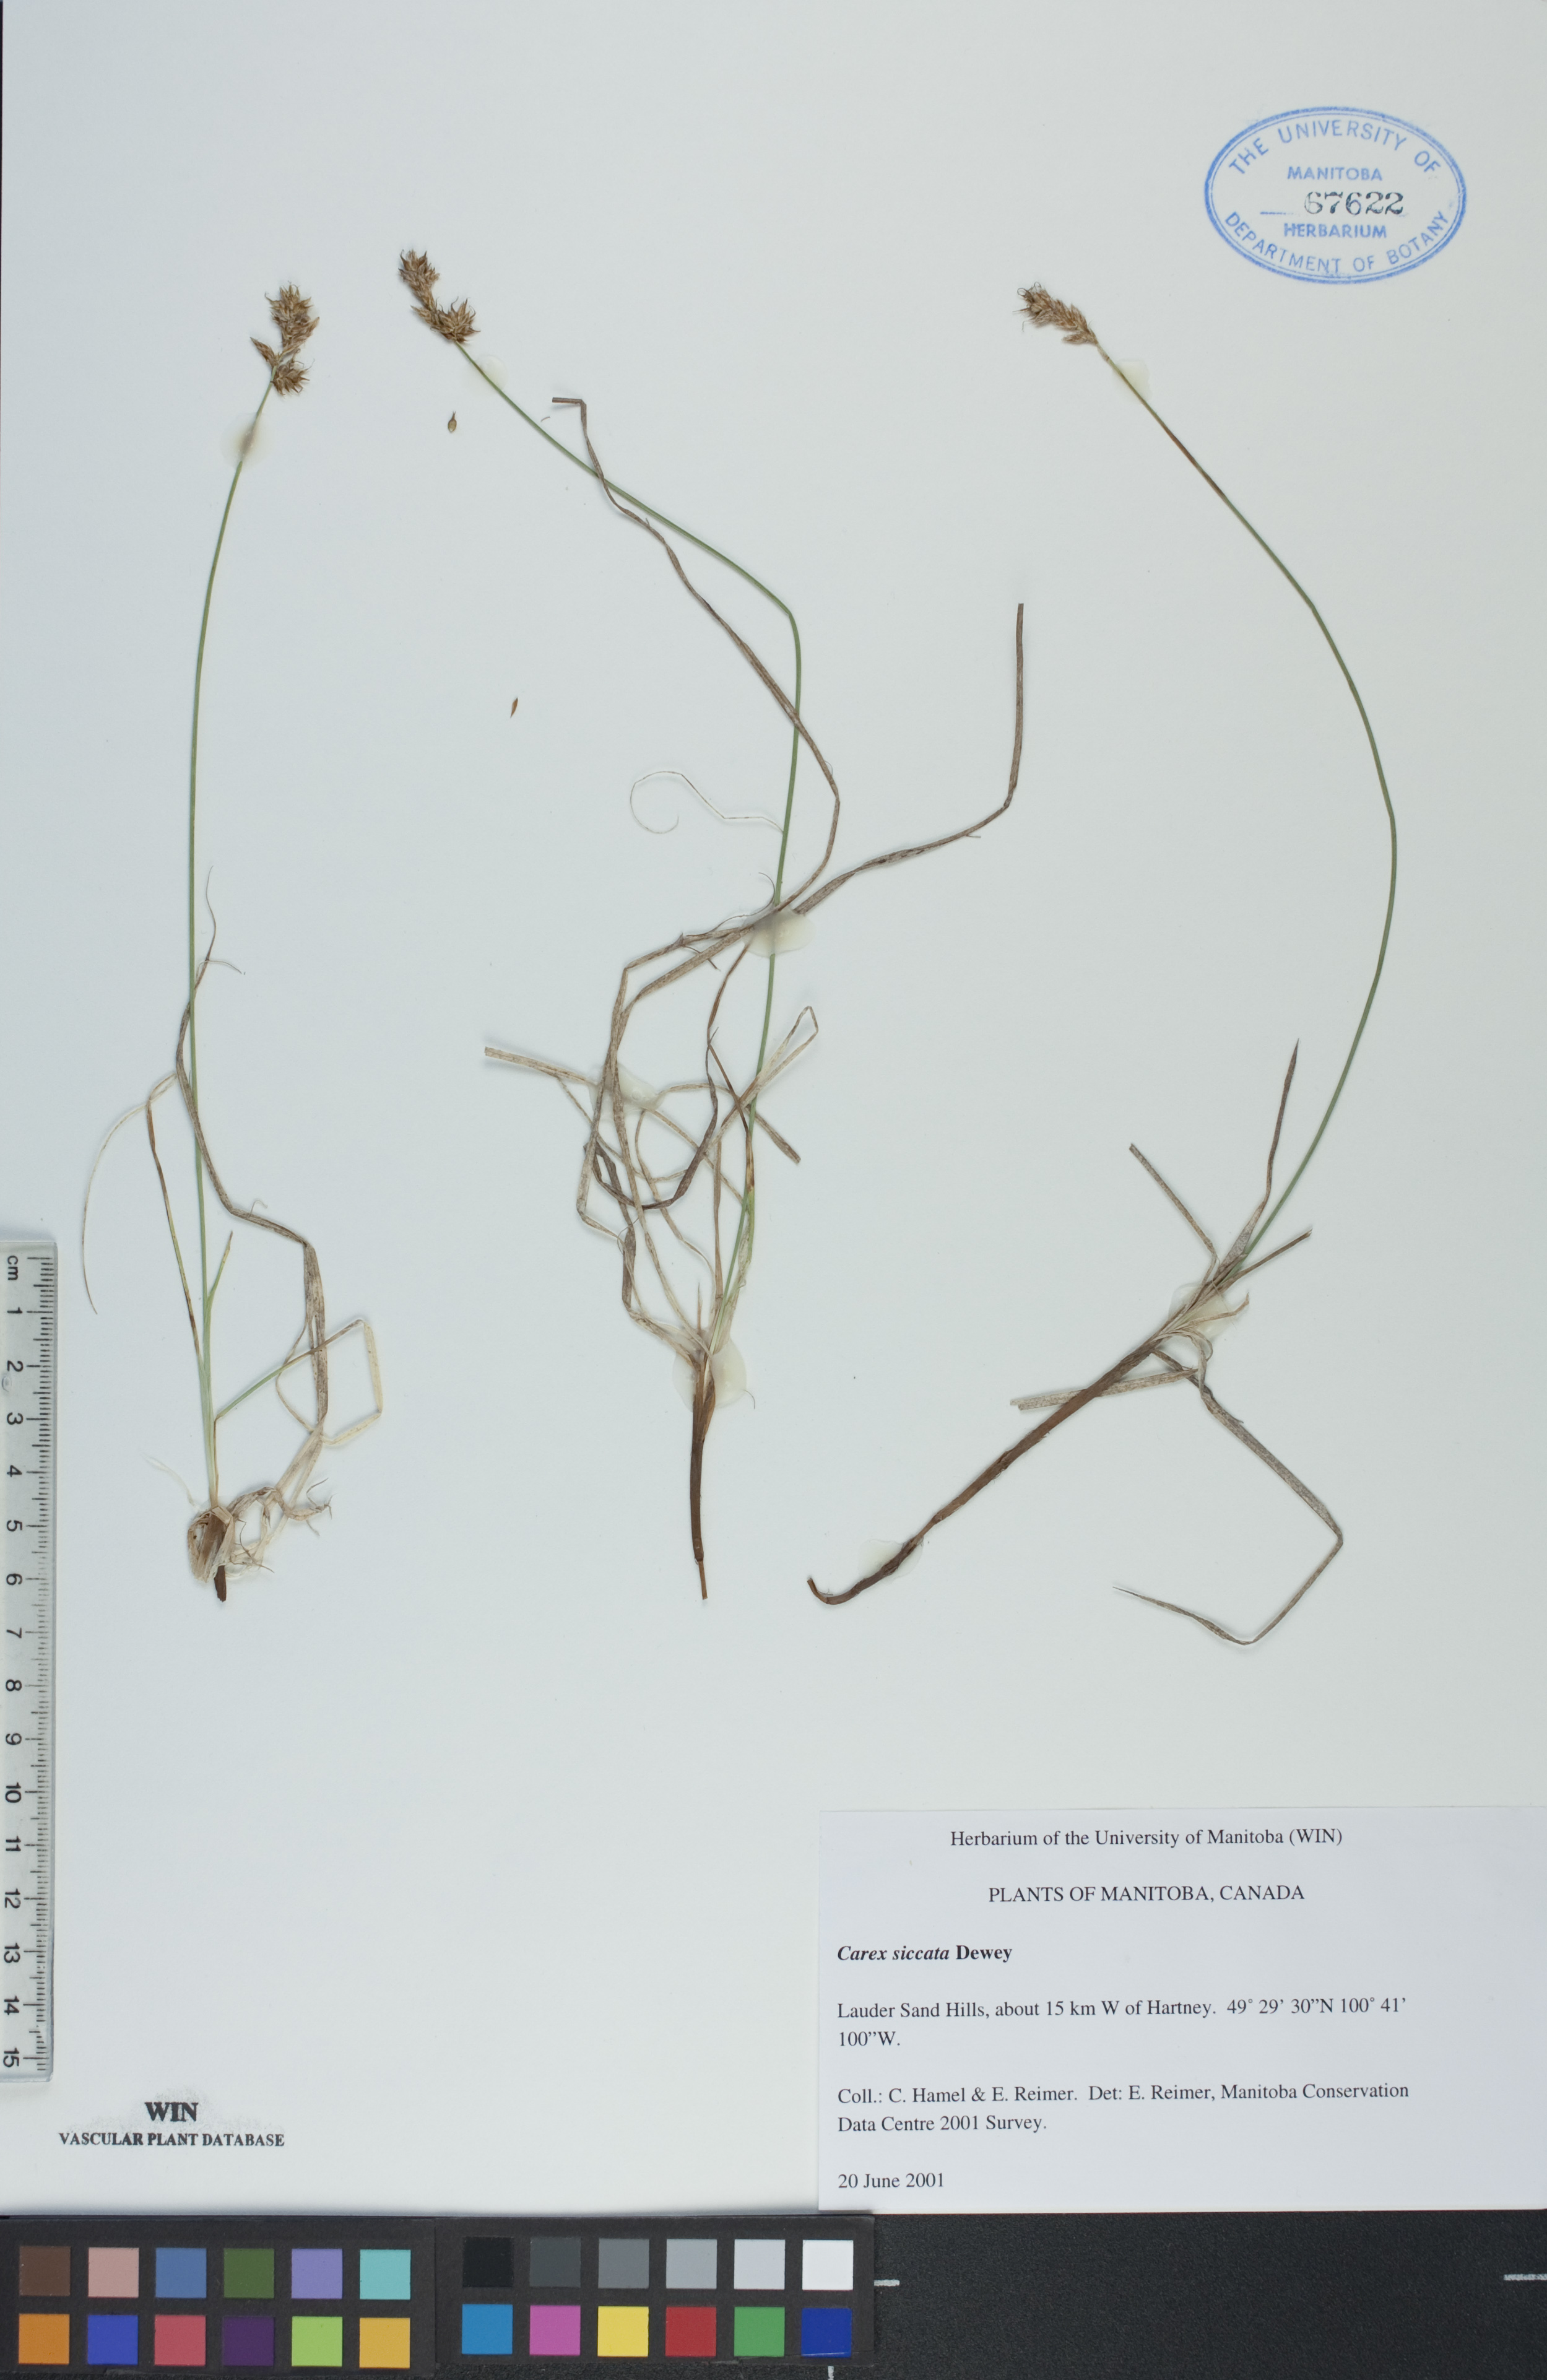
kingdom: Plantae
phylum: Tracheophyta
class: Liliopsida
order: Poales
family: Cyperaceae
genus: Carex
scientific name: Carex siccata
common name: Dry sedge
